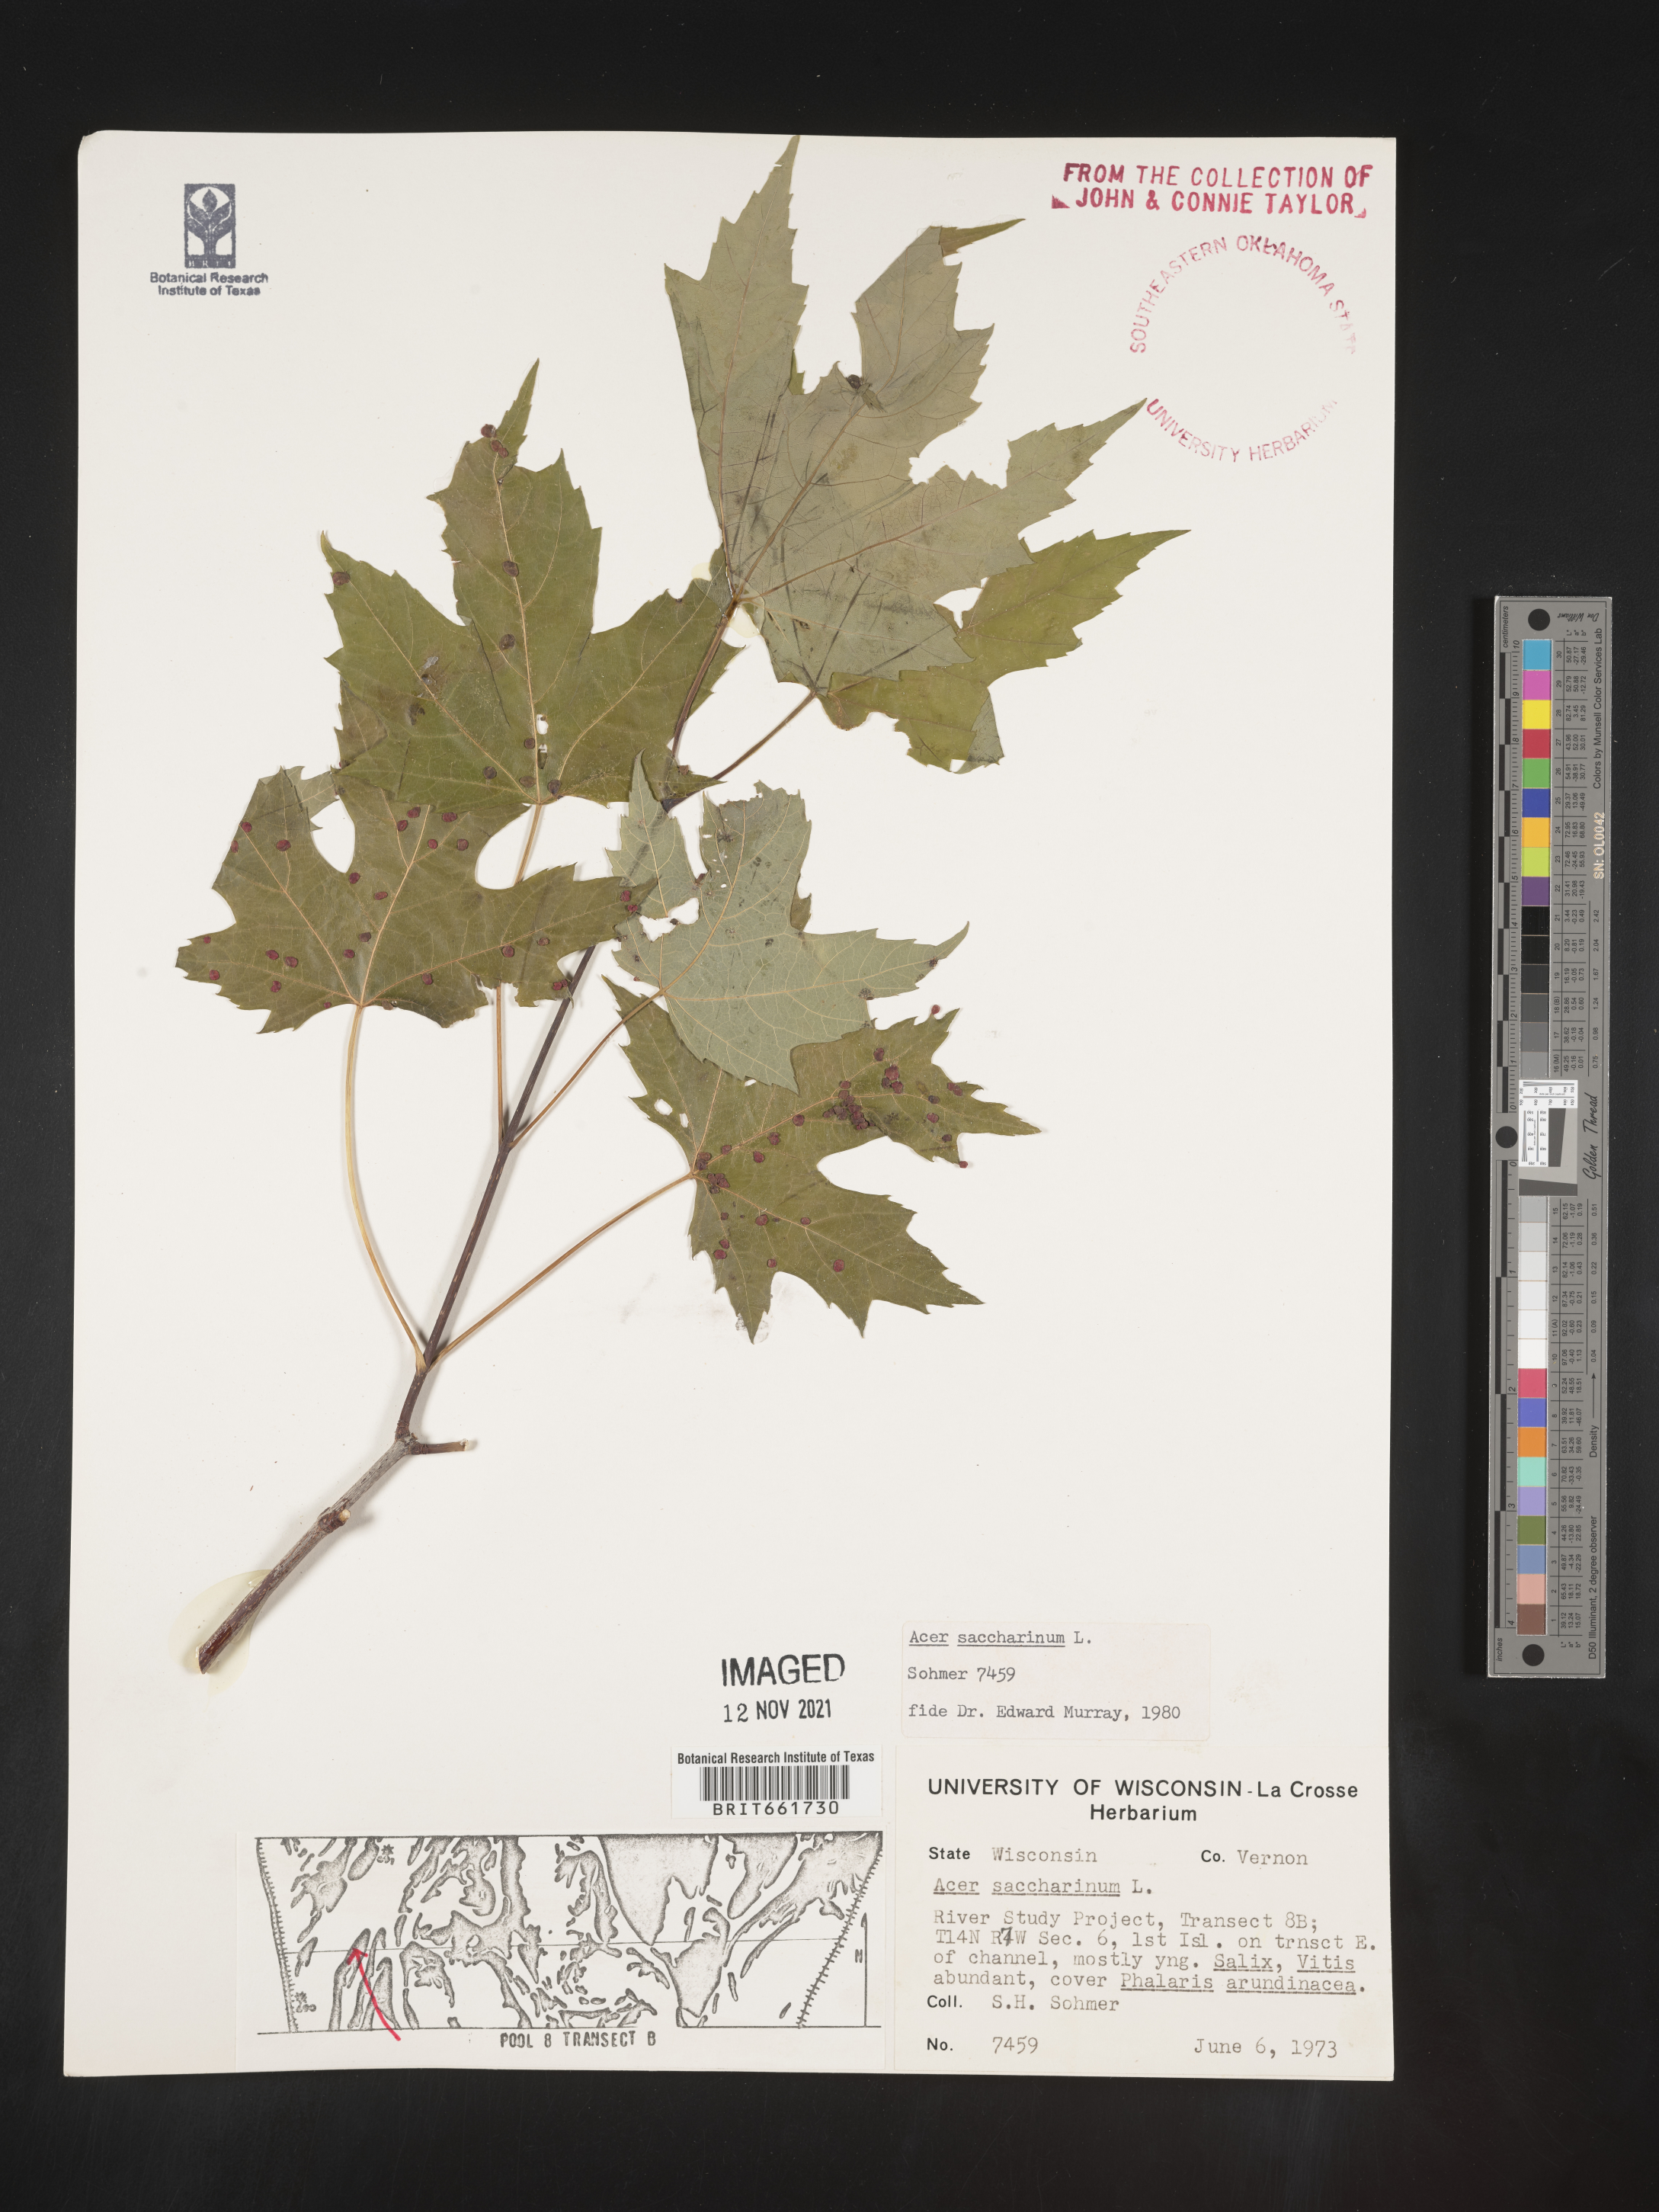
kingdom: Plantae
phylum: Tracheophyta
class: Magnoliopsida
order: Sapindales
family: Sapindaceae
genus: Acer
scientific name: Acer saccharinum
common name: Silver maple
